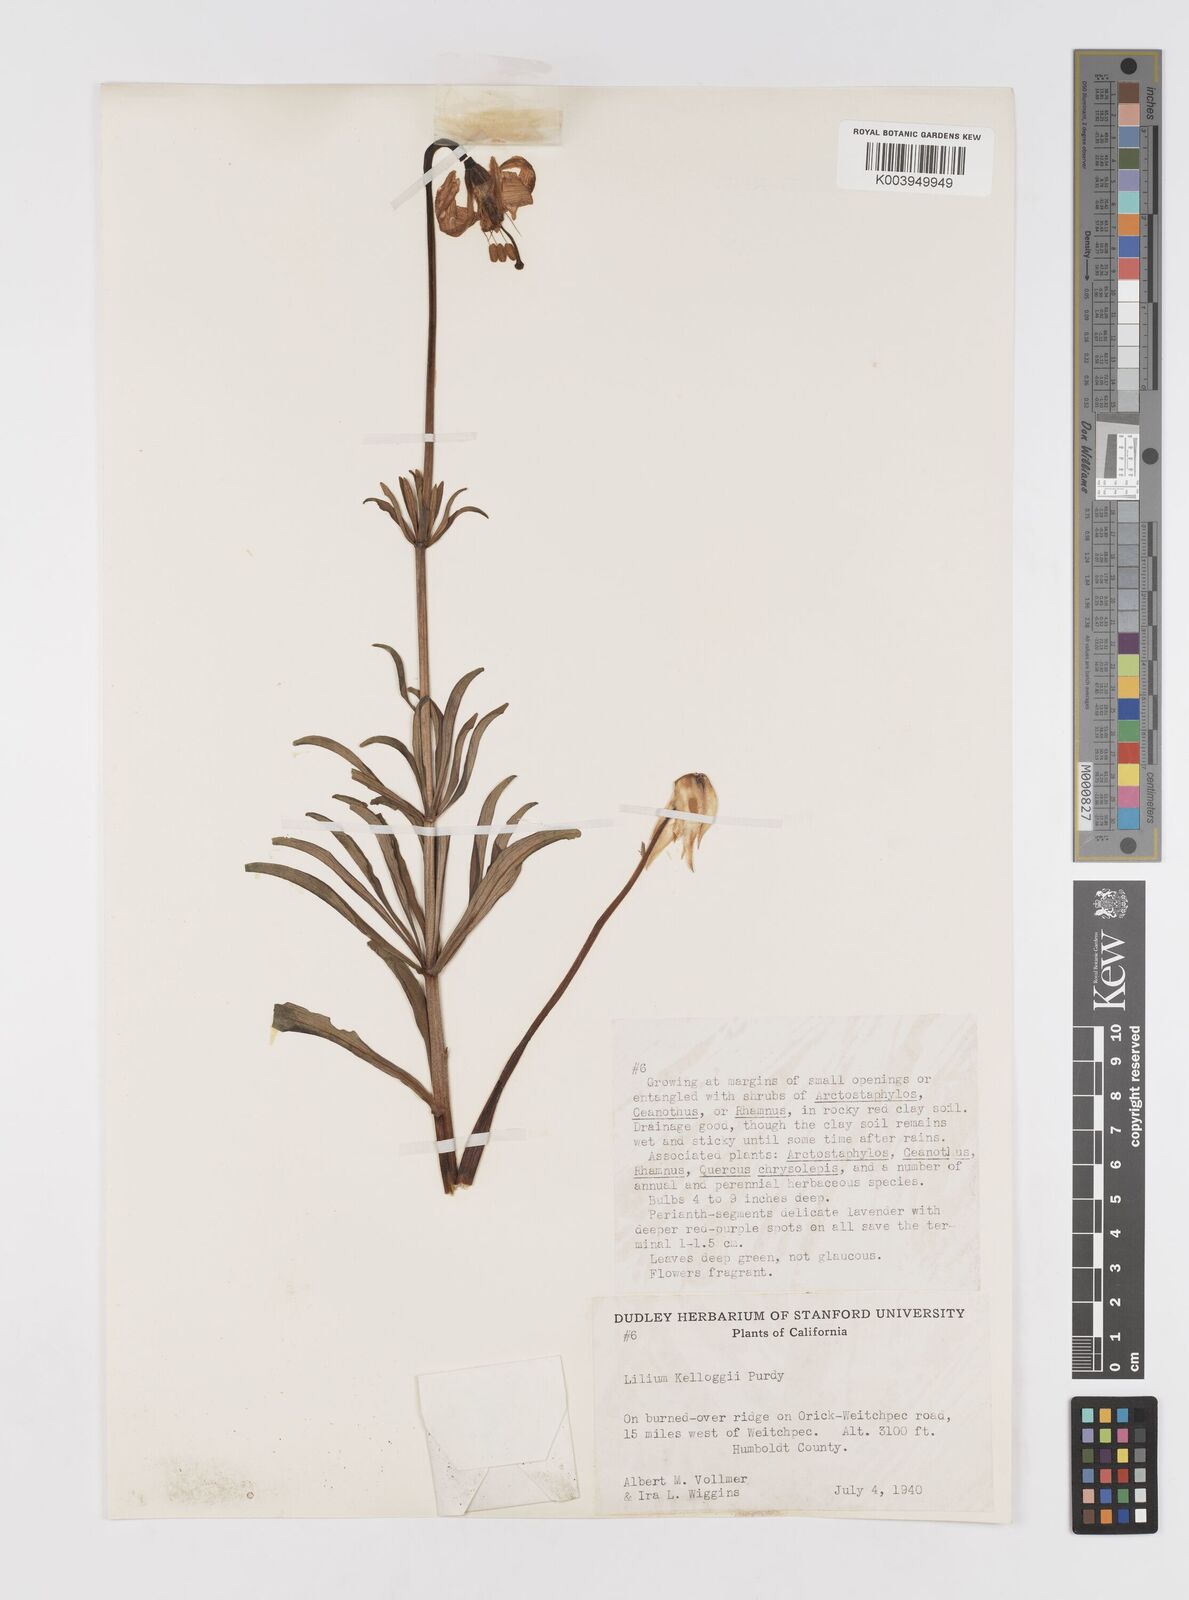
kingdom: Plantae
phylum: Tracheophyta
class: Liliopsida
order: Liliales
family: Liliaceae
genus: Lilium
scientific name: Lilium kelloggii
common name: Kellogg's lily
